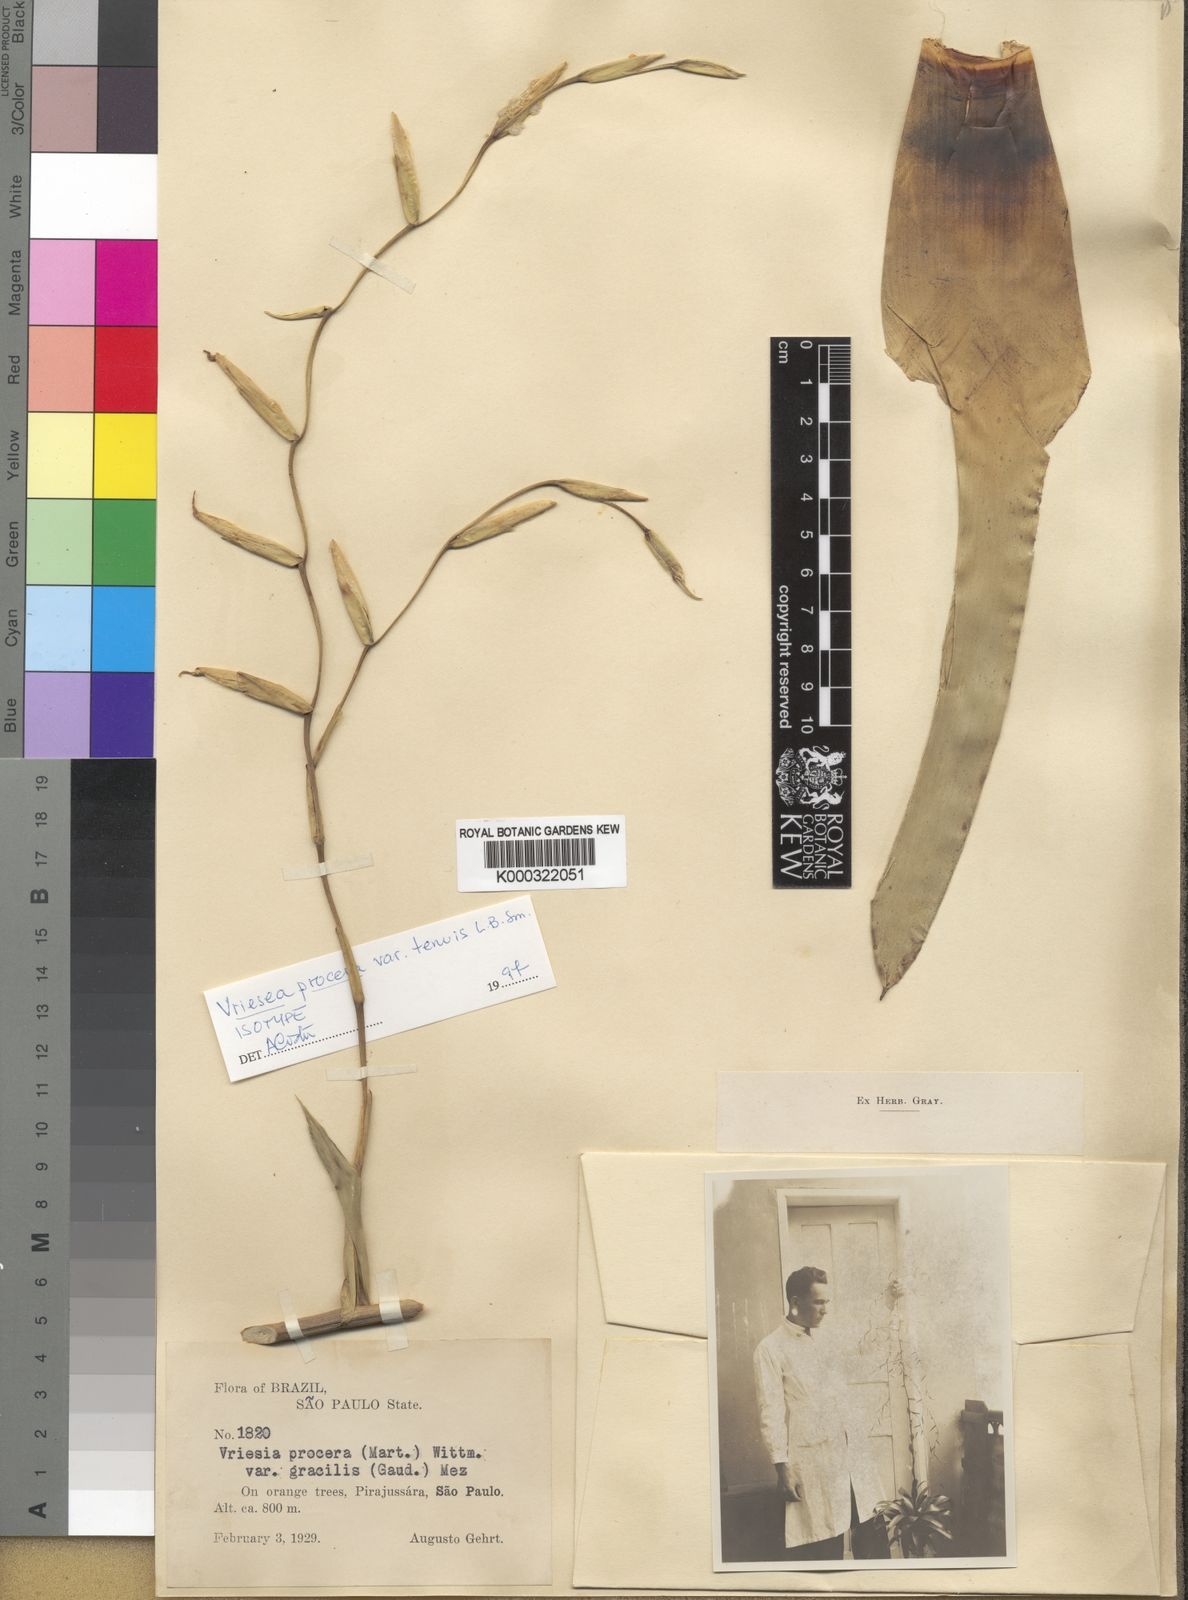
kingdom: Plantae
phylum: Tracheophyta
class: Liliopsida
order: Poales
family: Bromeliaceae
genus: Vriesea
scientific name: Vriesea procera
